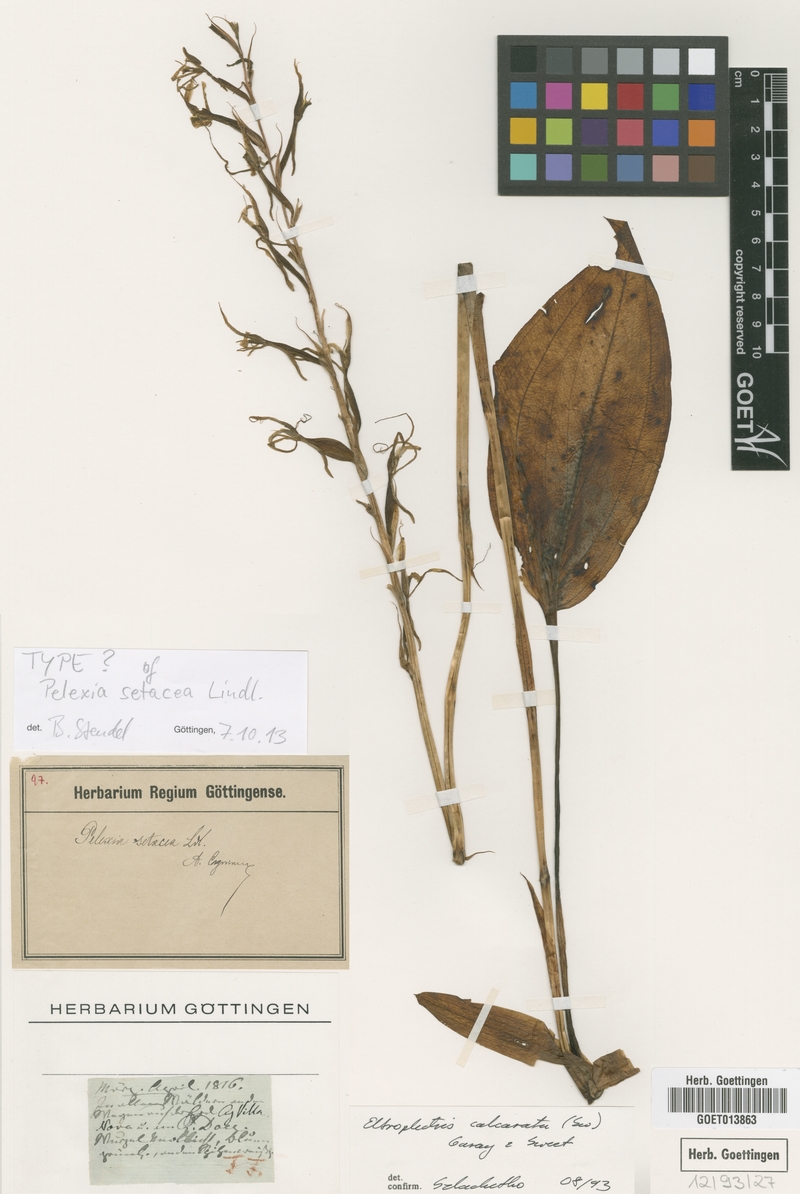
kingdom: Plantae
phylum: Tracheophyta
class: Liliopsida
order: Asparagales
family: Orchidaceae
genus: Eltroplectris
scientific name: Eltroplectris calcarata
